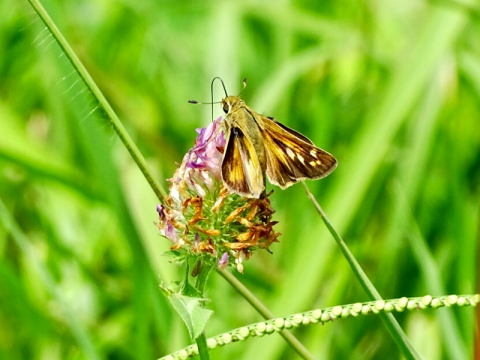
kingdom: Animalia
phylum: Arthropoda
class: Insecta
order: Lepidoptera
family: Hesperiidae
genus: Atalopedes
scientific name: Atalopedes campestris
